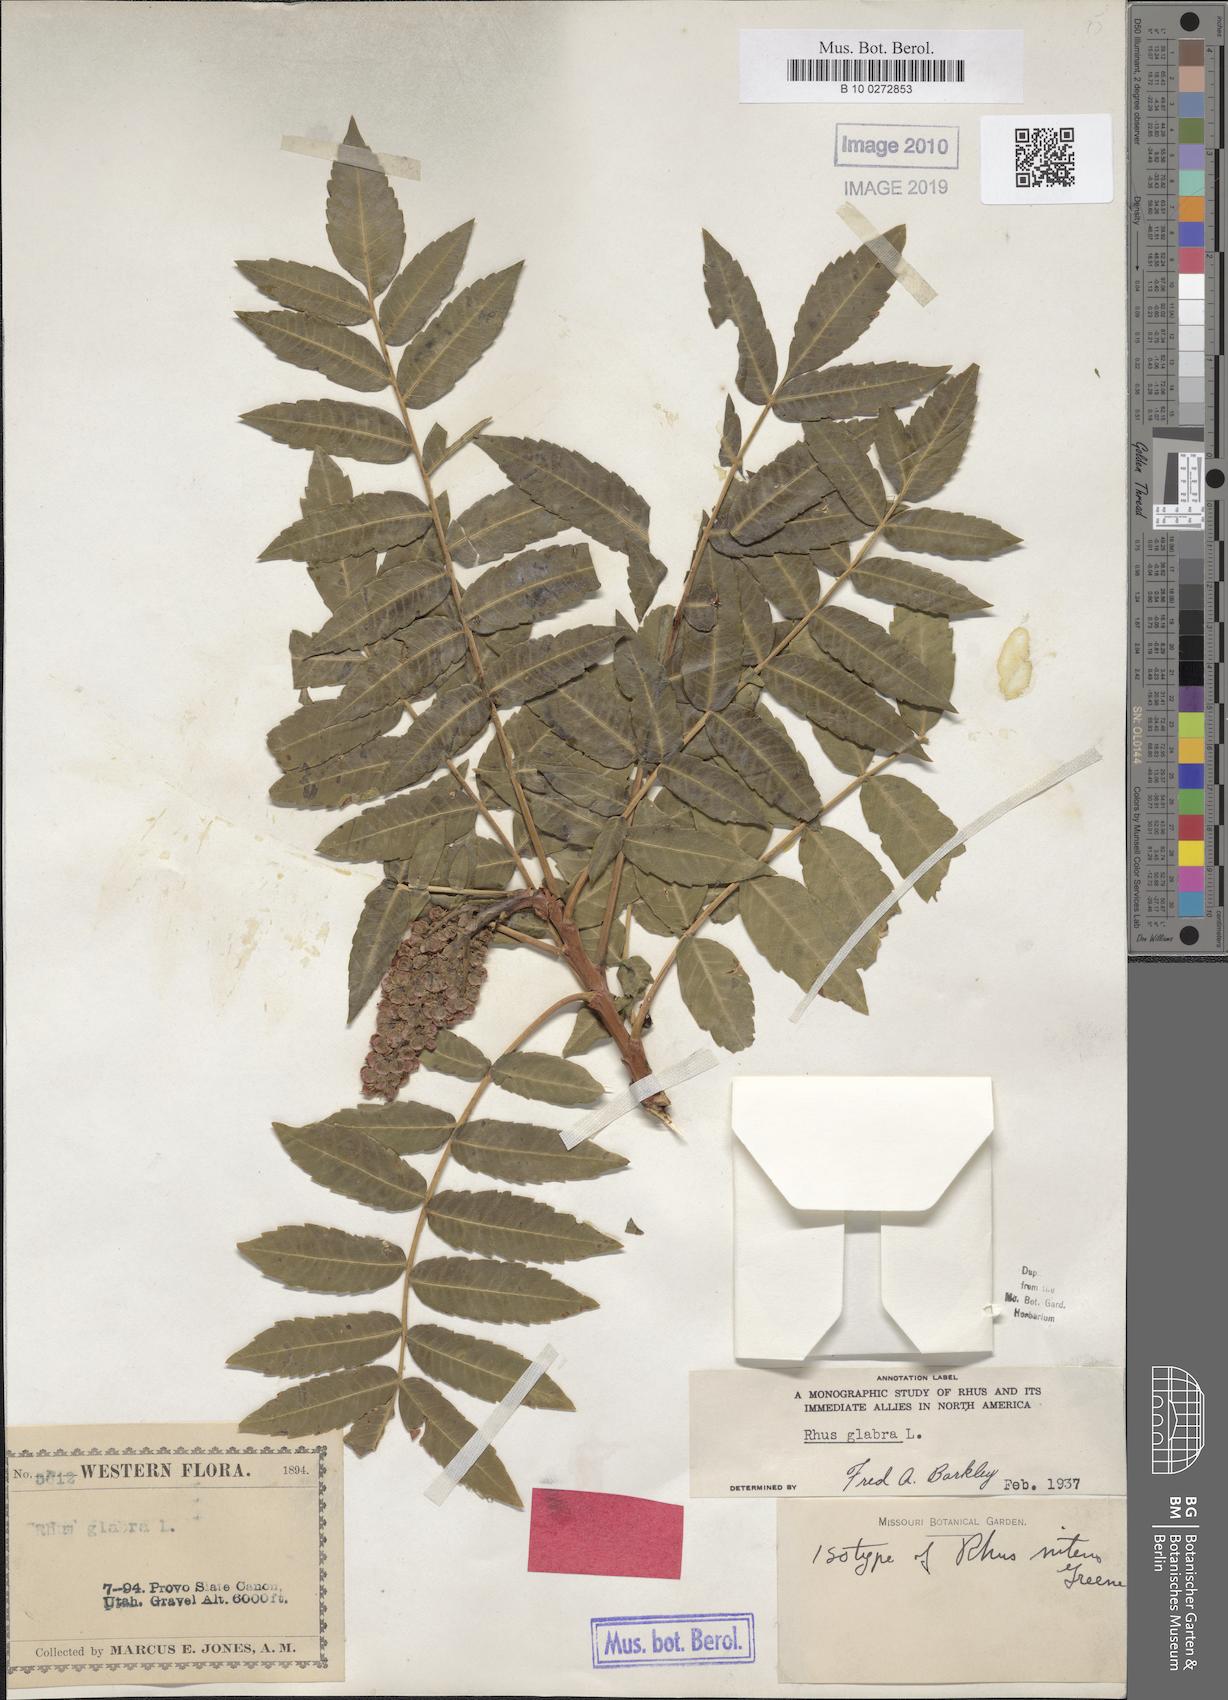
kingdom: Plantae
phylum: Tracheophyta
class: Magnoliopsida
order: Sapindales
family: Anacardiaceae
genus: Rhus
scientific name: Rhus glabra
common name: Scarlet sumac
